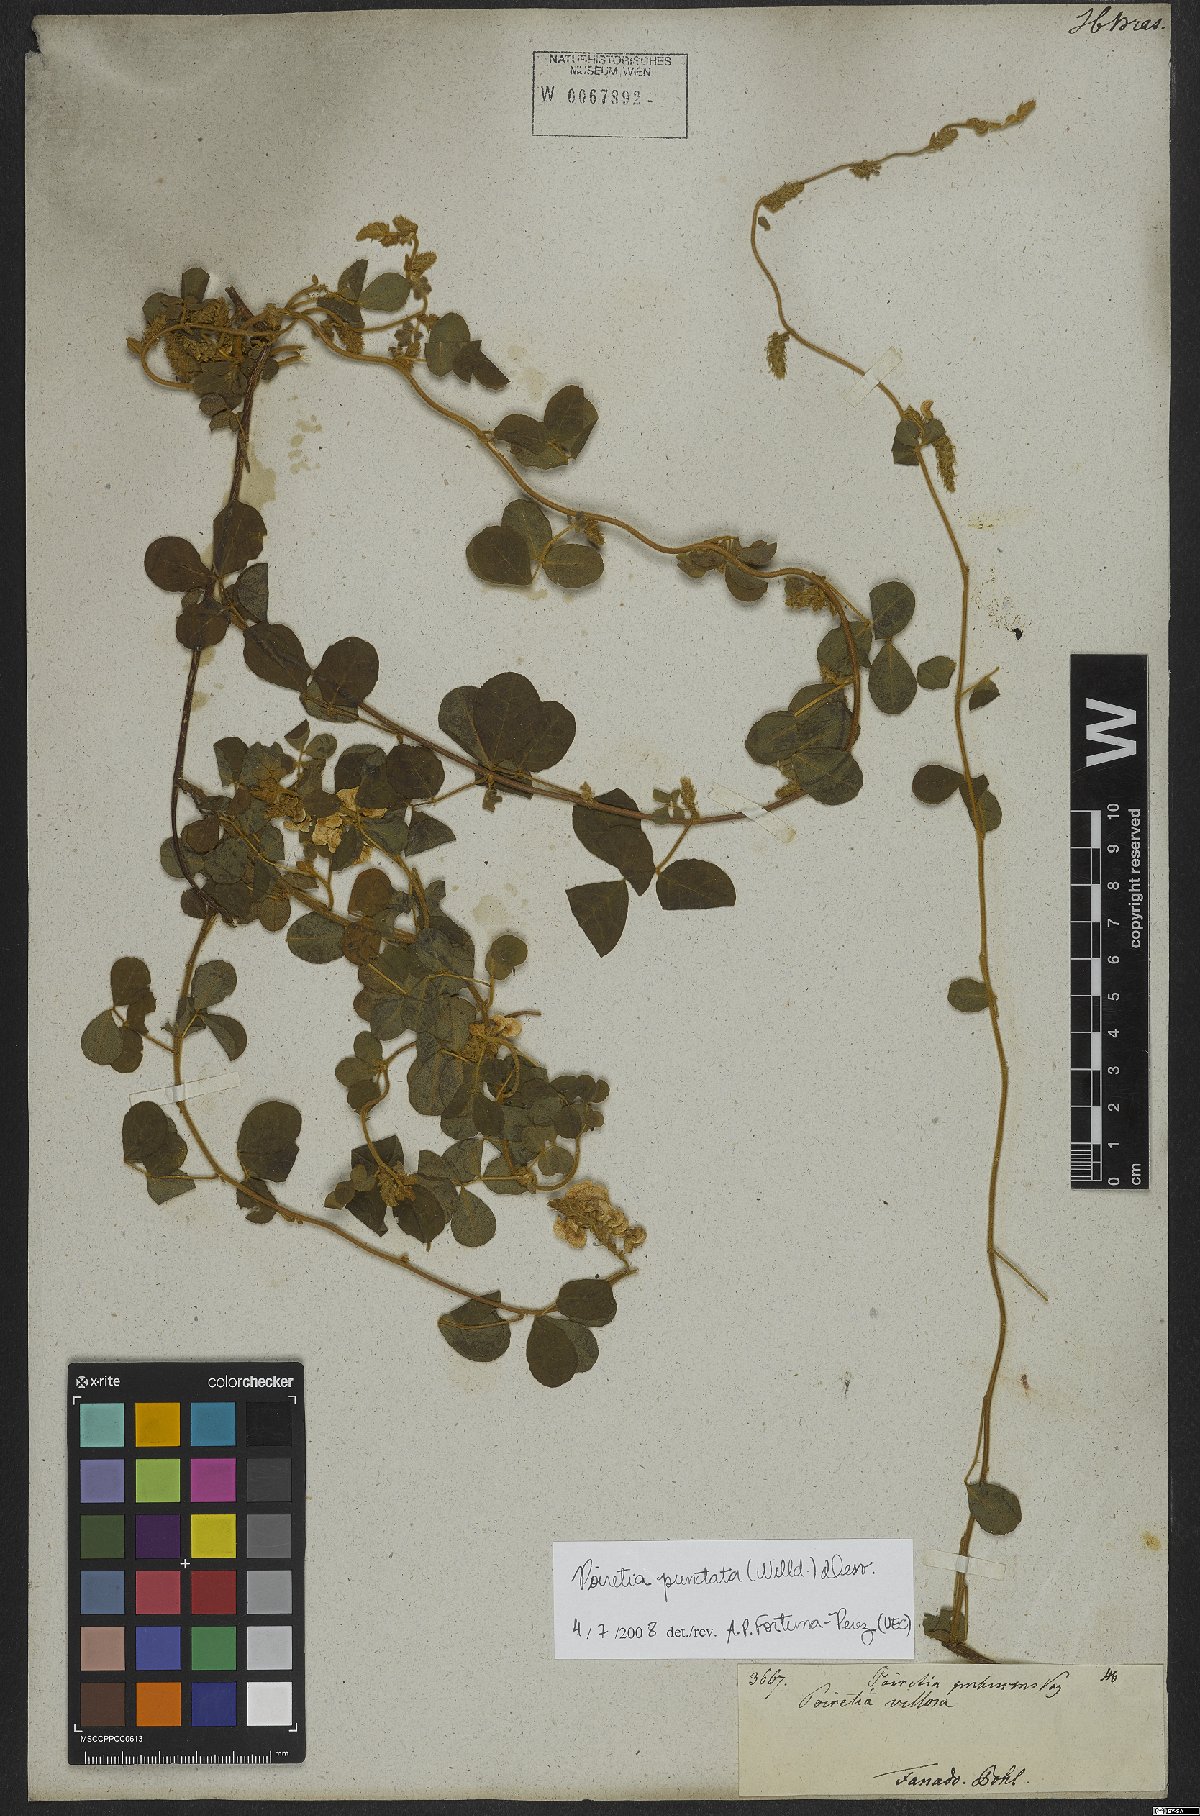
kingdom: Plantae
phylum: Tracheophyta
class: Magnoliopsida
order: Fabales
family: Fabaceae
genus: Poiretia
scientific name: Poiretia punctata
